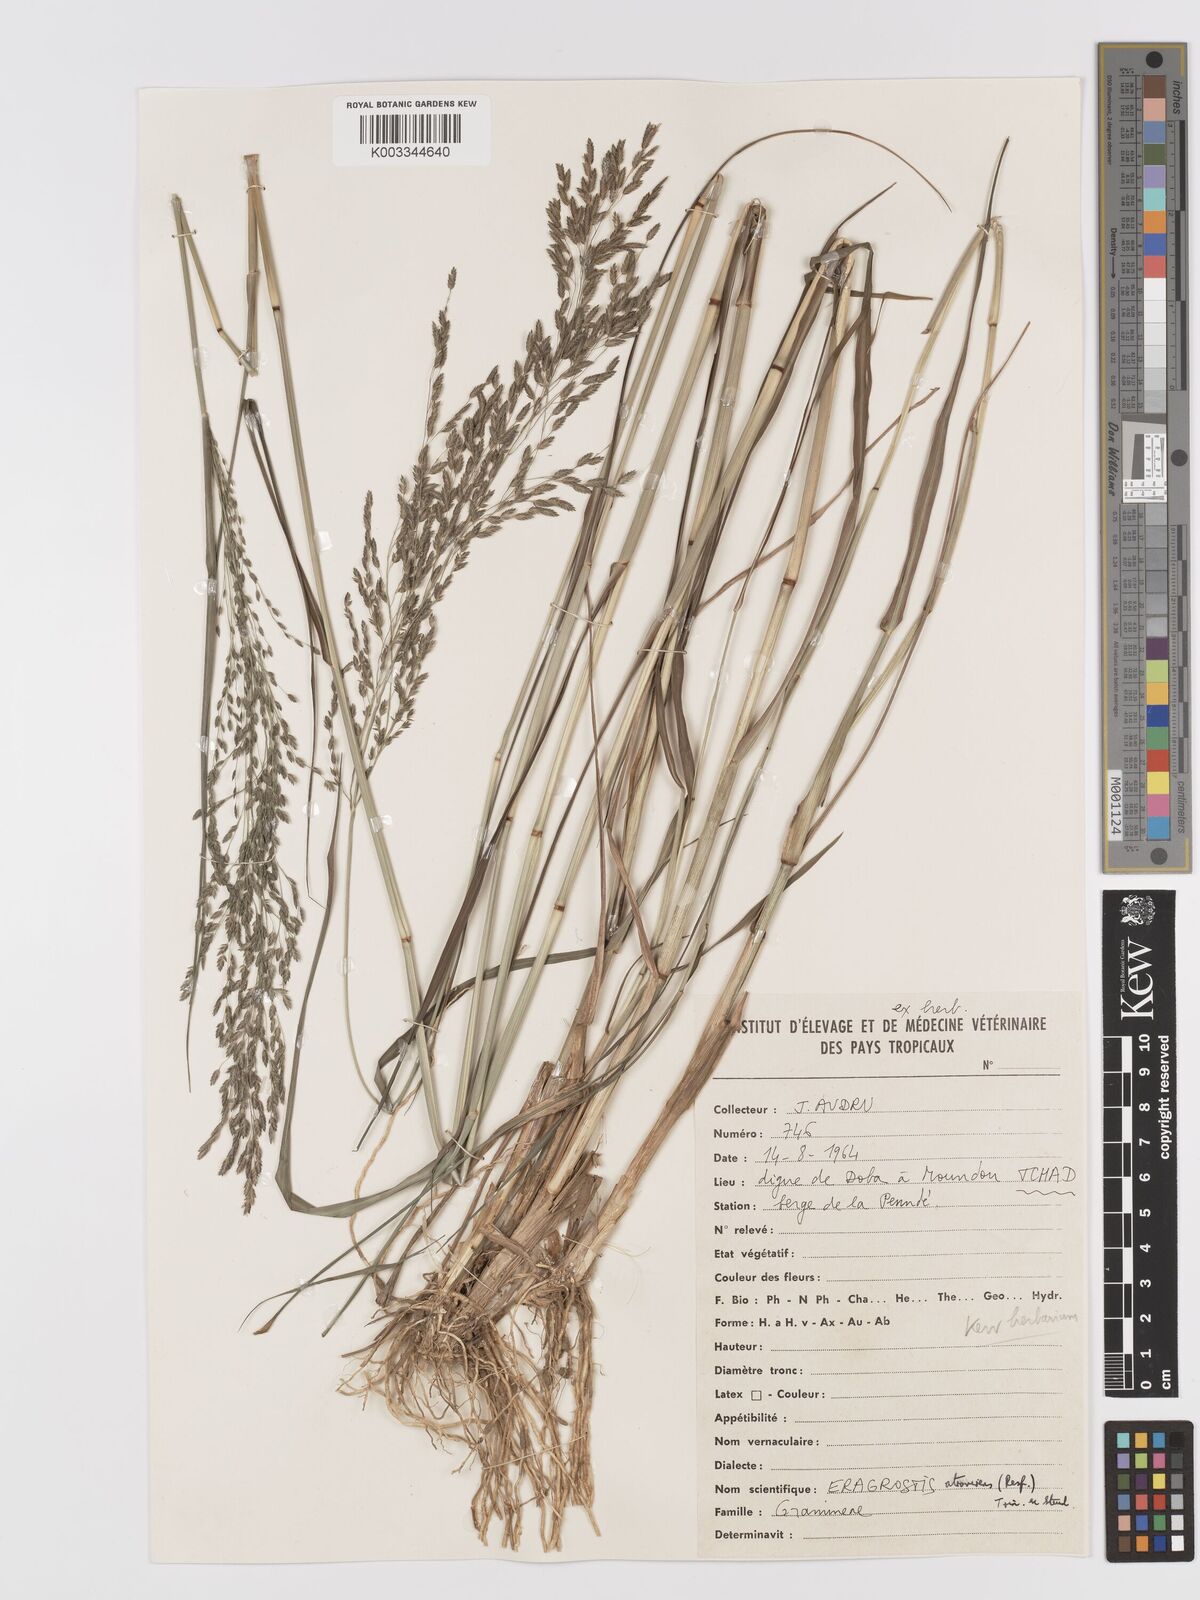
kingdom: Plantae
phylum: Tracheophyta
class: Liliopsida
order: Poales
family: Poaceae
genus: Eragrostis
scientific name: Eragrostis
